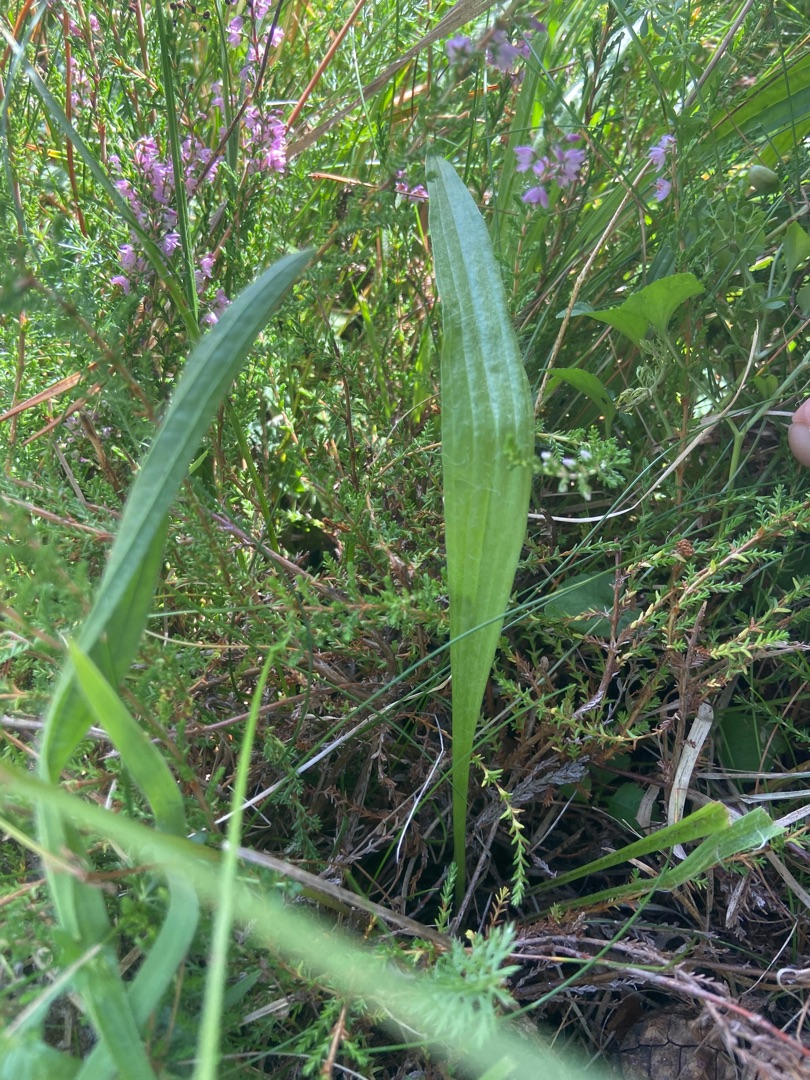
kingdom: Plantae
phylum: Tracheophyta
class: Magnoliopsida
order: Lamiales
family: Plantaginaceae
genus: Plantago
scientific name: Plantago lanceolata
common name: Lancet-vejbred
